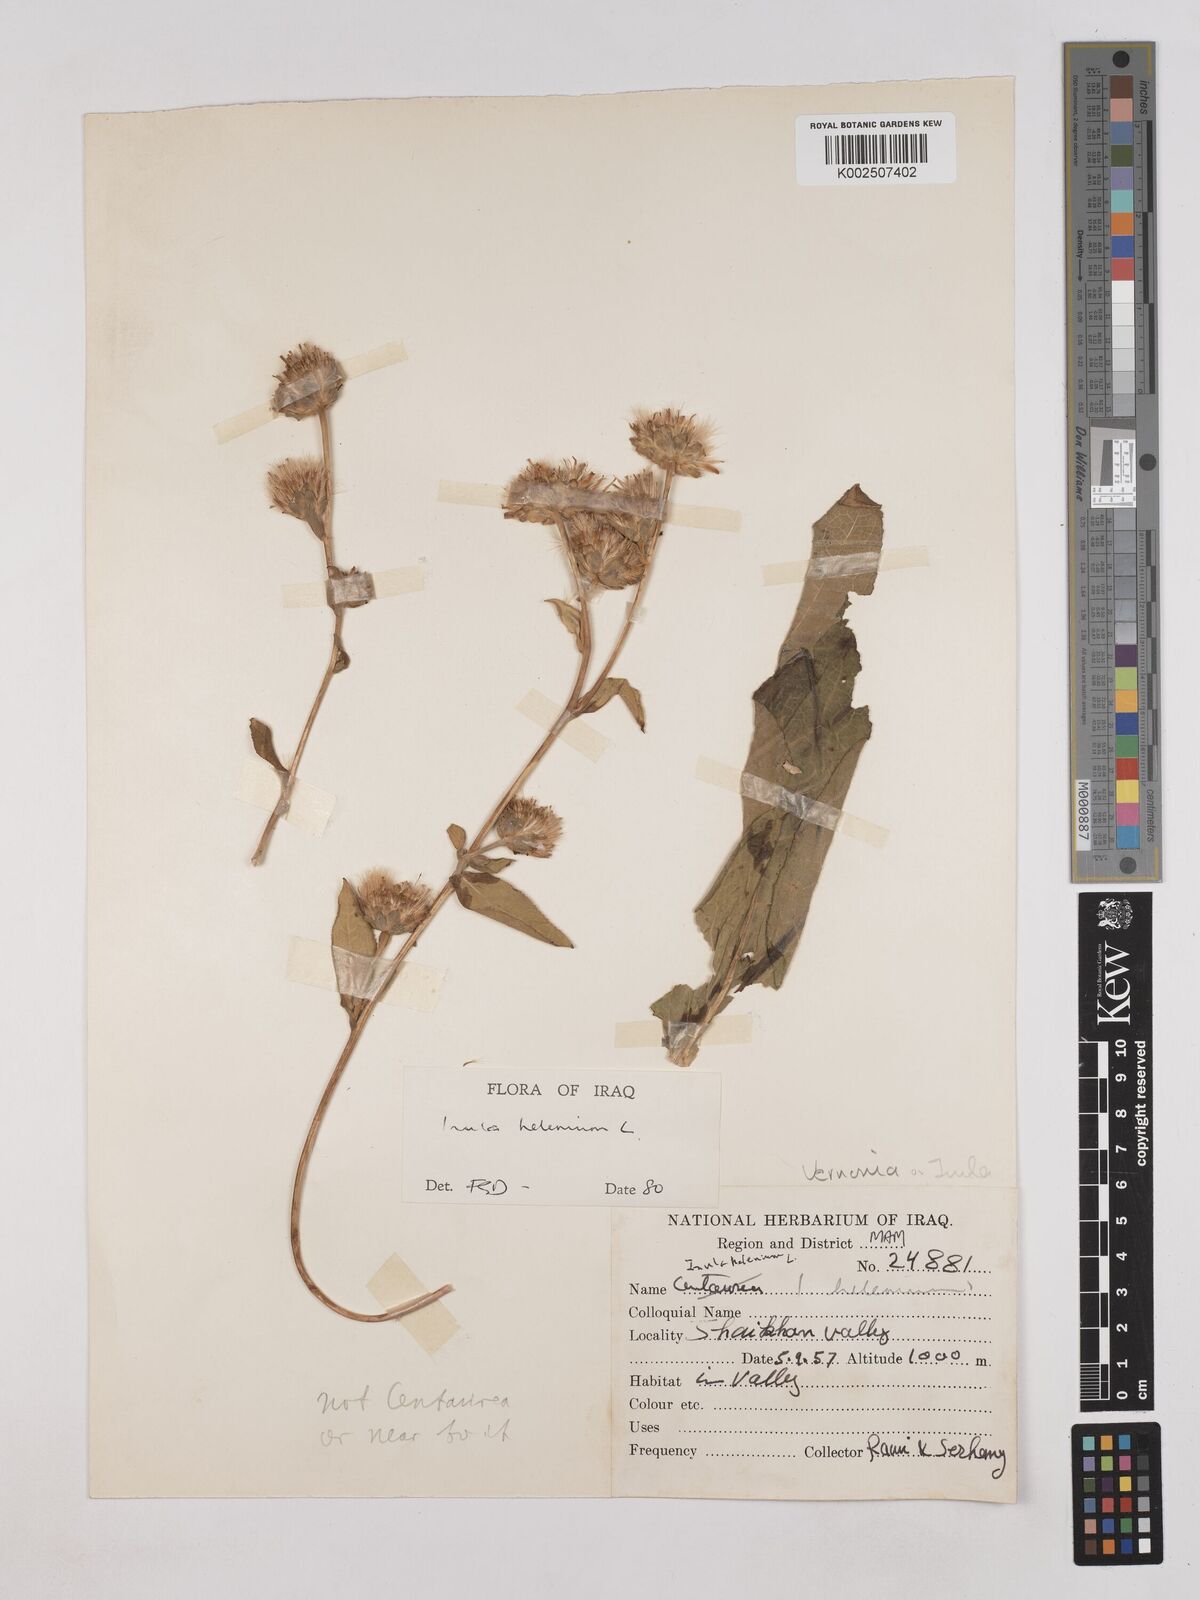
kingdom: Plantae
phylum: Tracheophyta
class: Magnoliopsida
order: Asterales
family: Asteraceae
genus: Inula
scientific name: Inula
